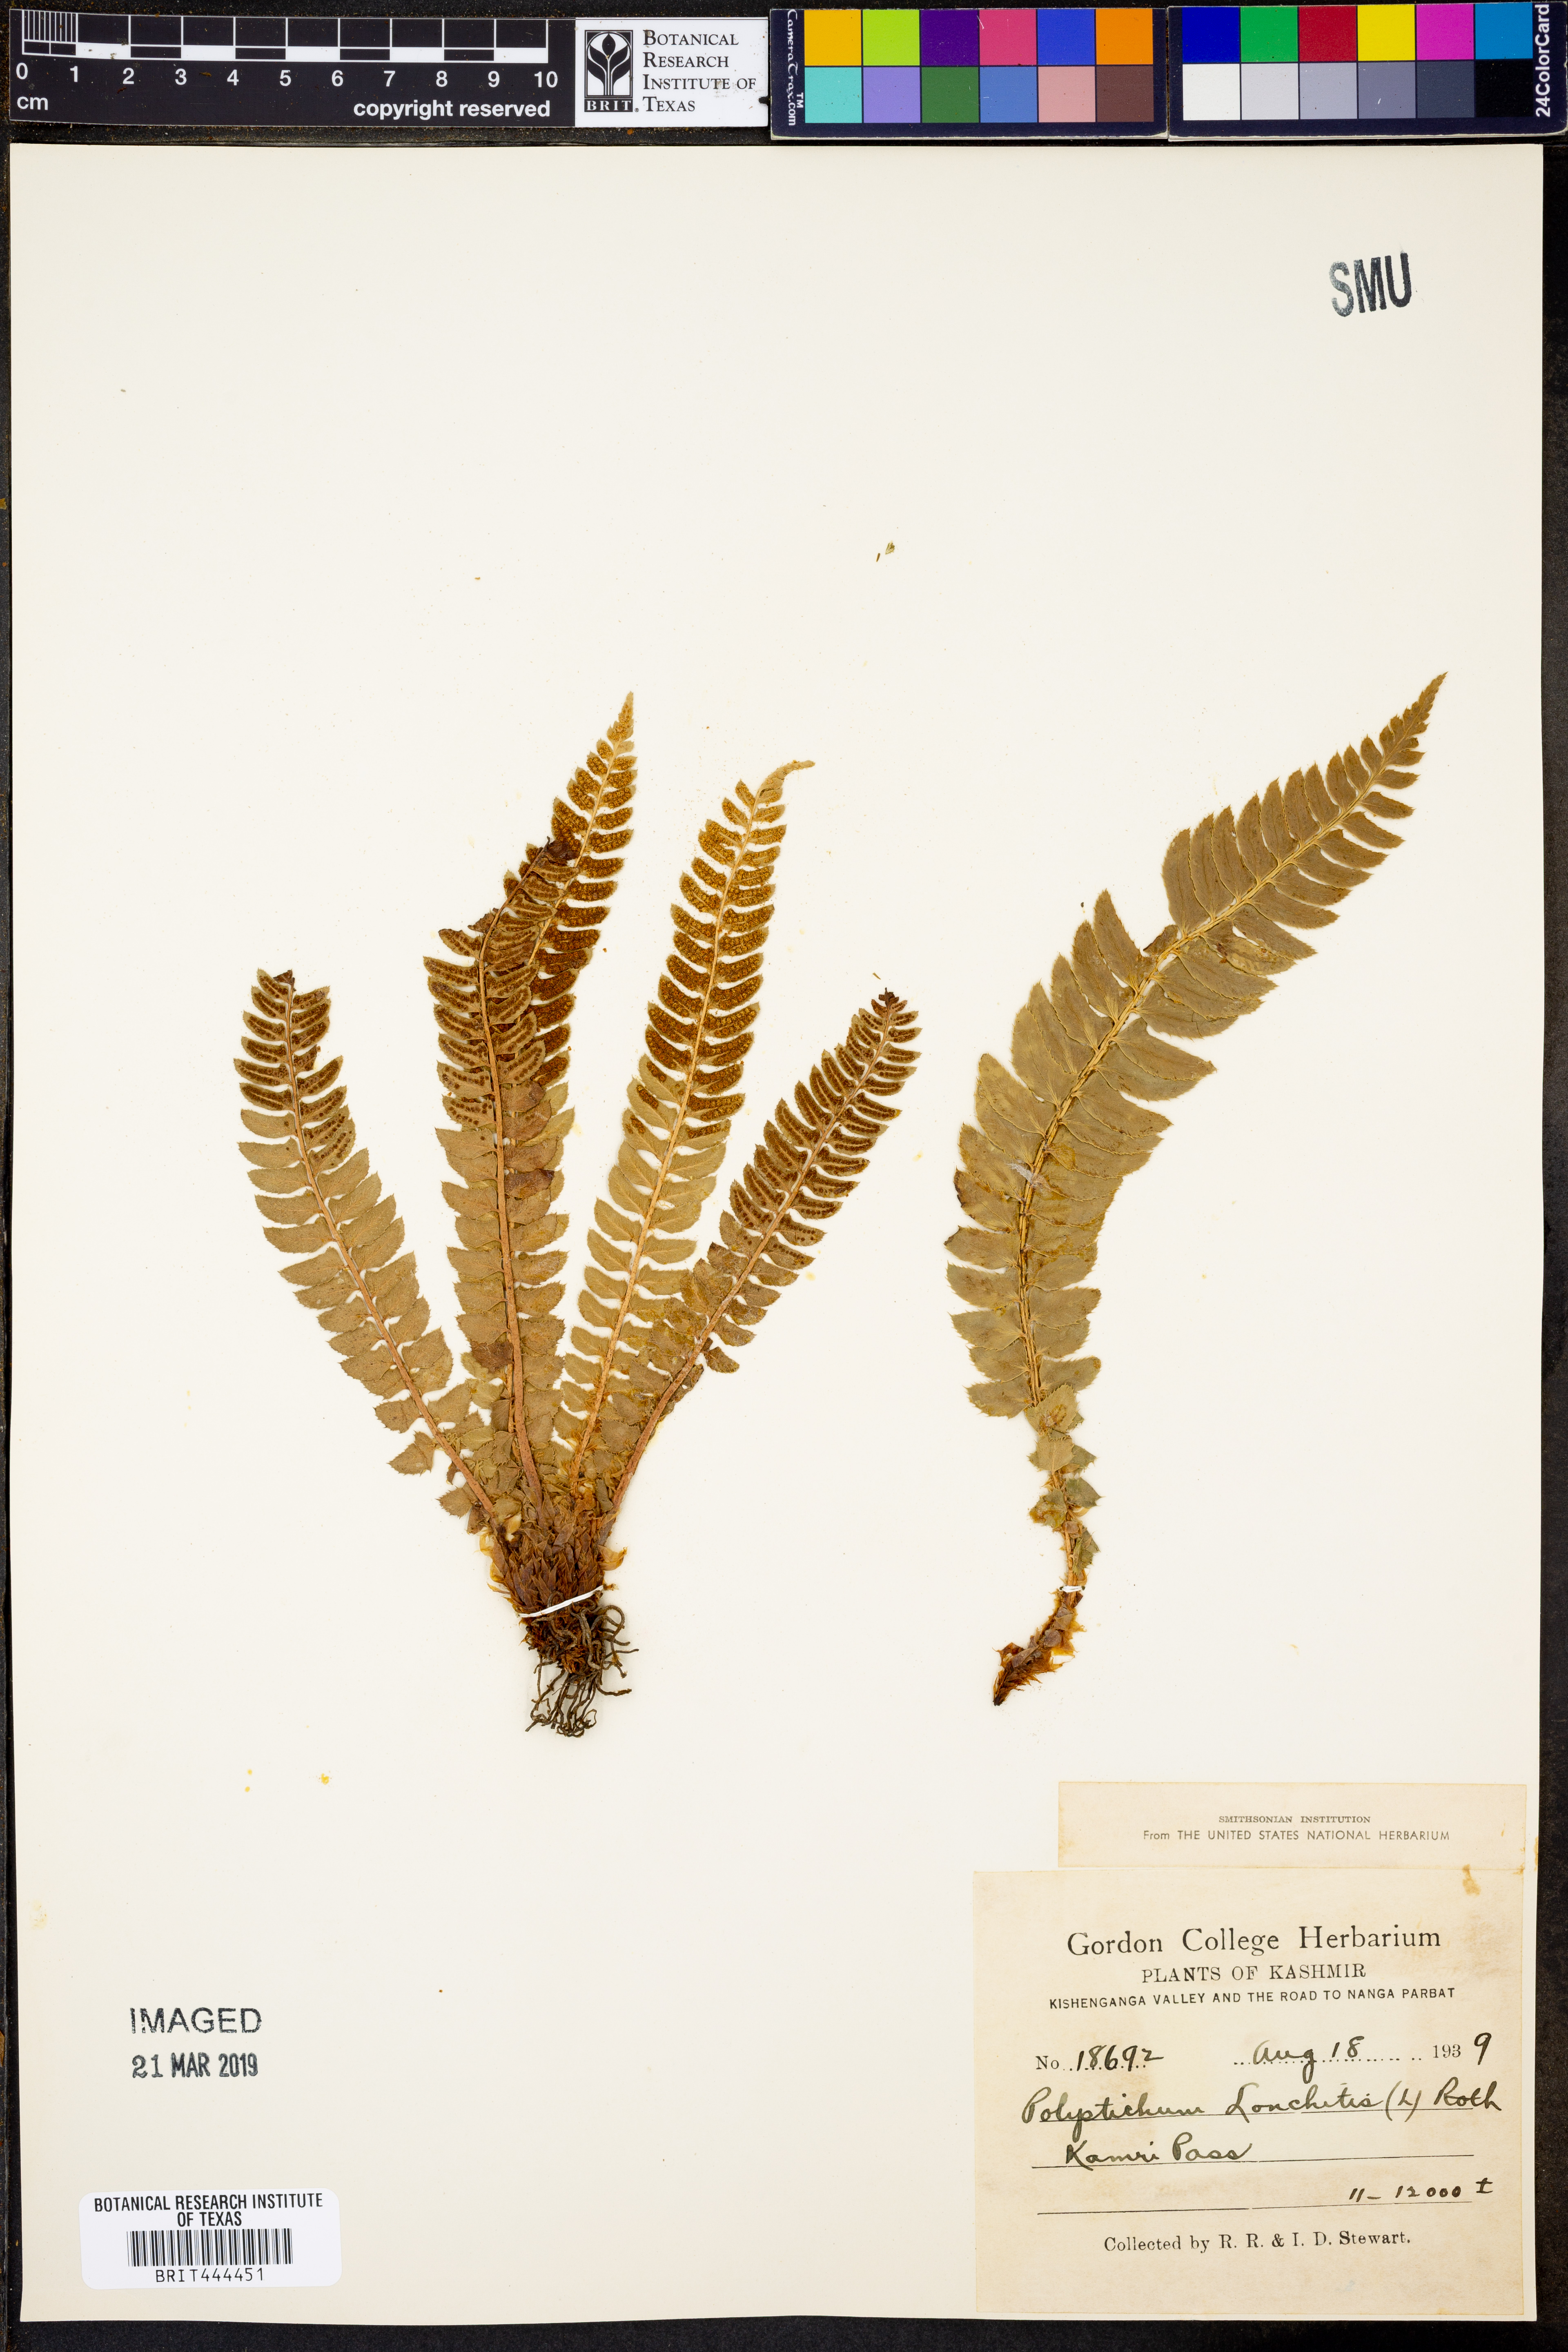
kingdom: Plantae
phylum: Tracheophyta
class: Polypodiopsida
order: Polypodiales
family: Dryopteridaceae
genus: Polystichum
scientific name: Polystichum lonchitis
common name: Holly fern
